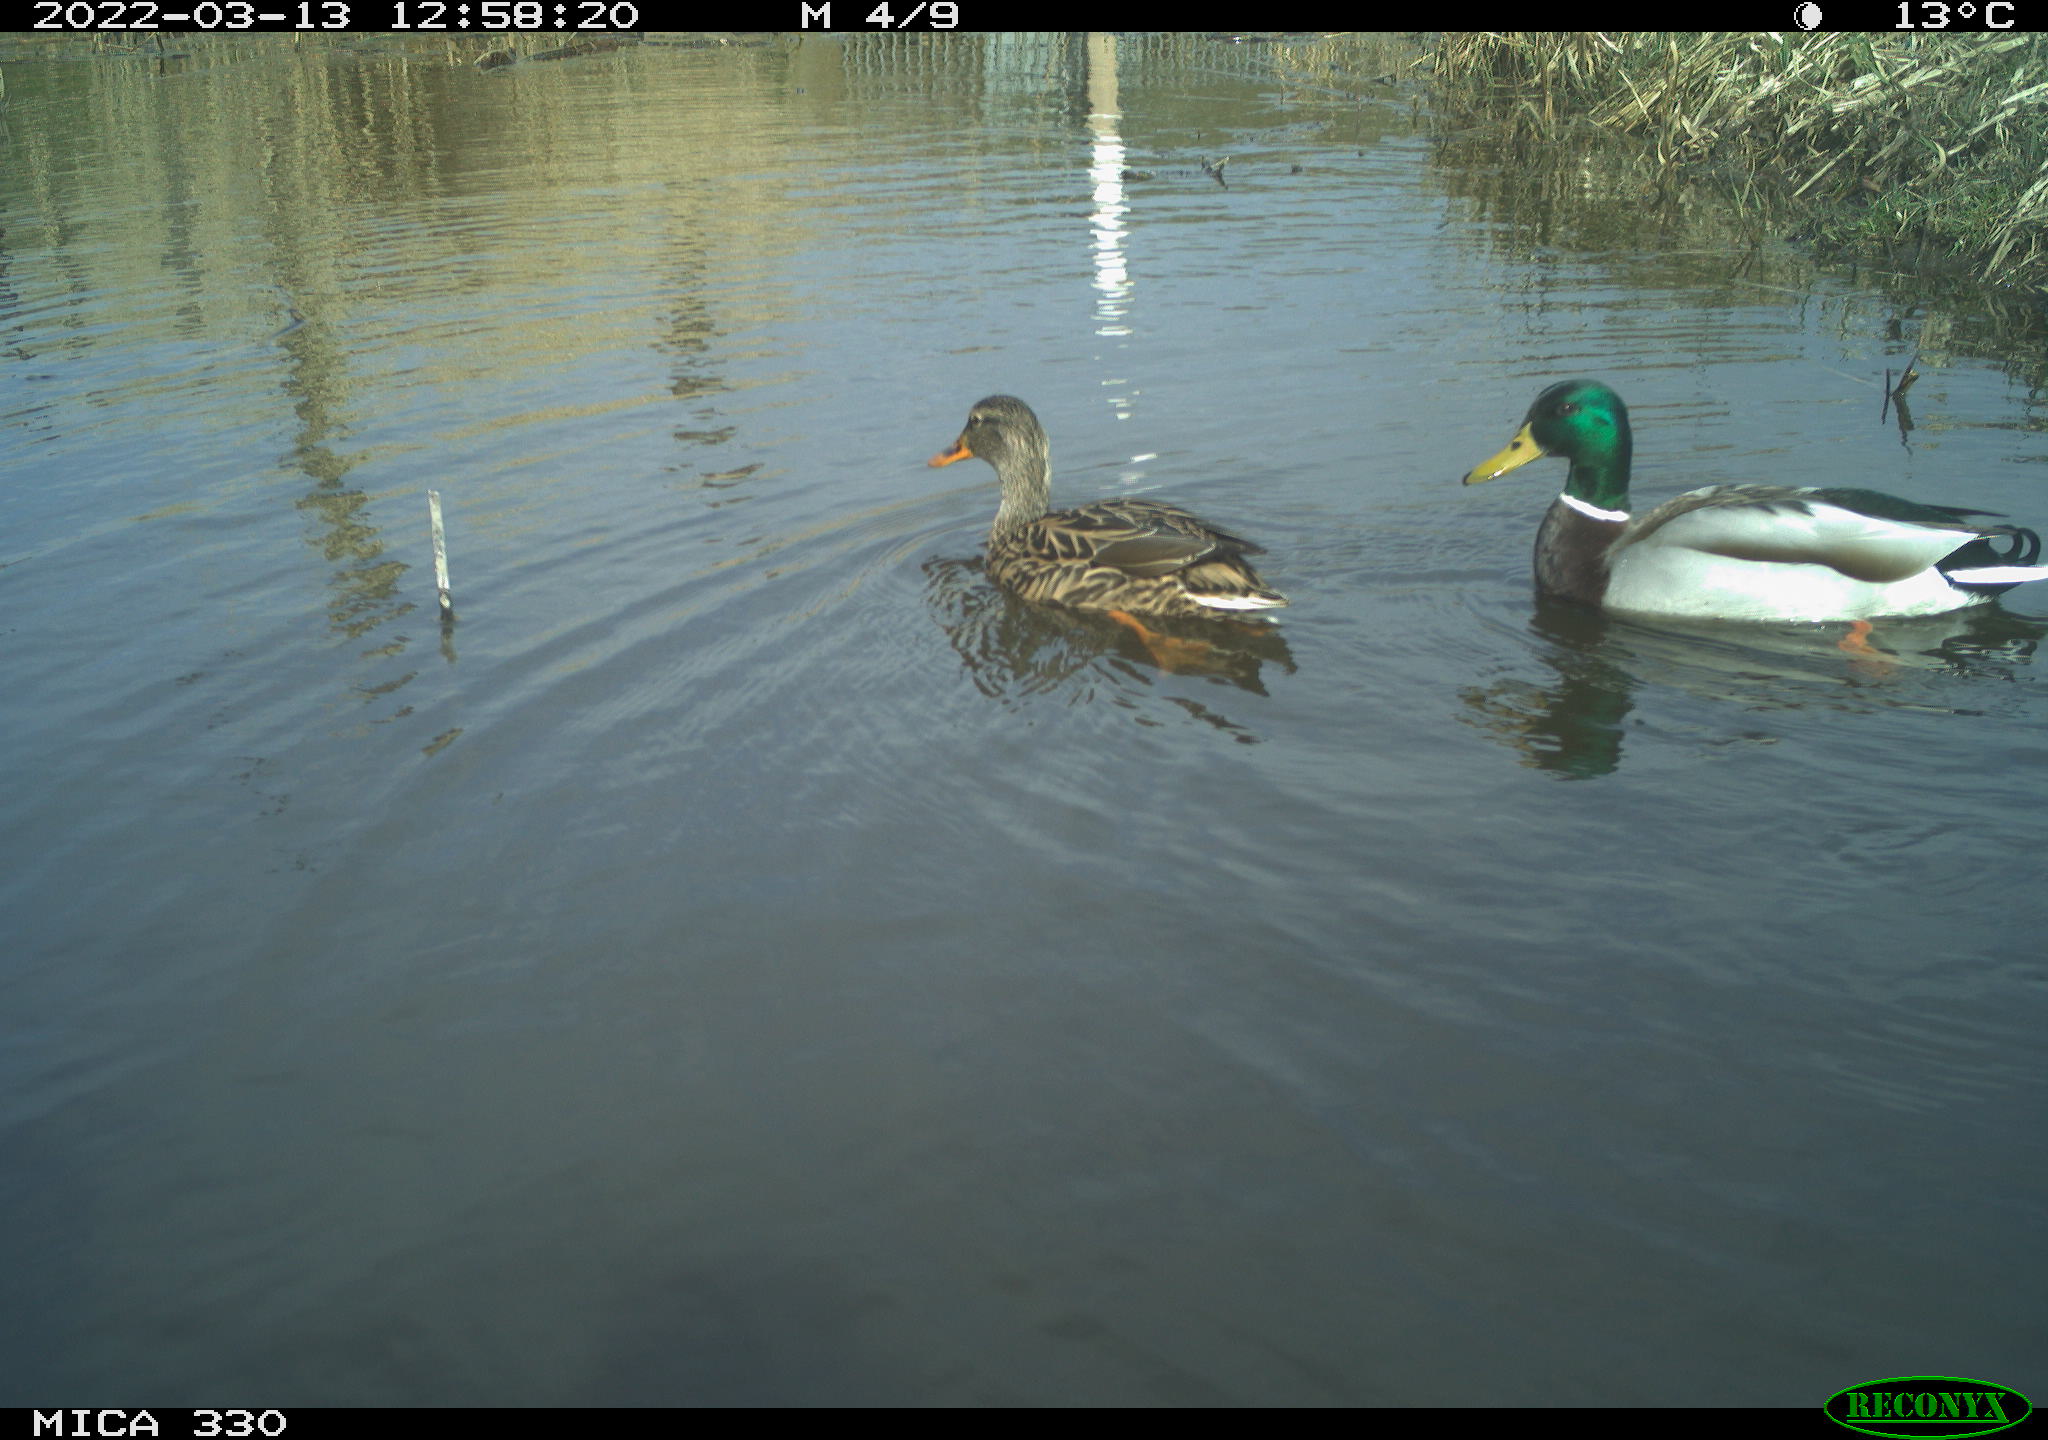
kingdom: Animalia
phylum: Chordata
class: Aves
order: Anseriformes
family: Anatidae
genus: Anas
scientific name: Anas platyrhynchos
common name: Mallard
